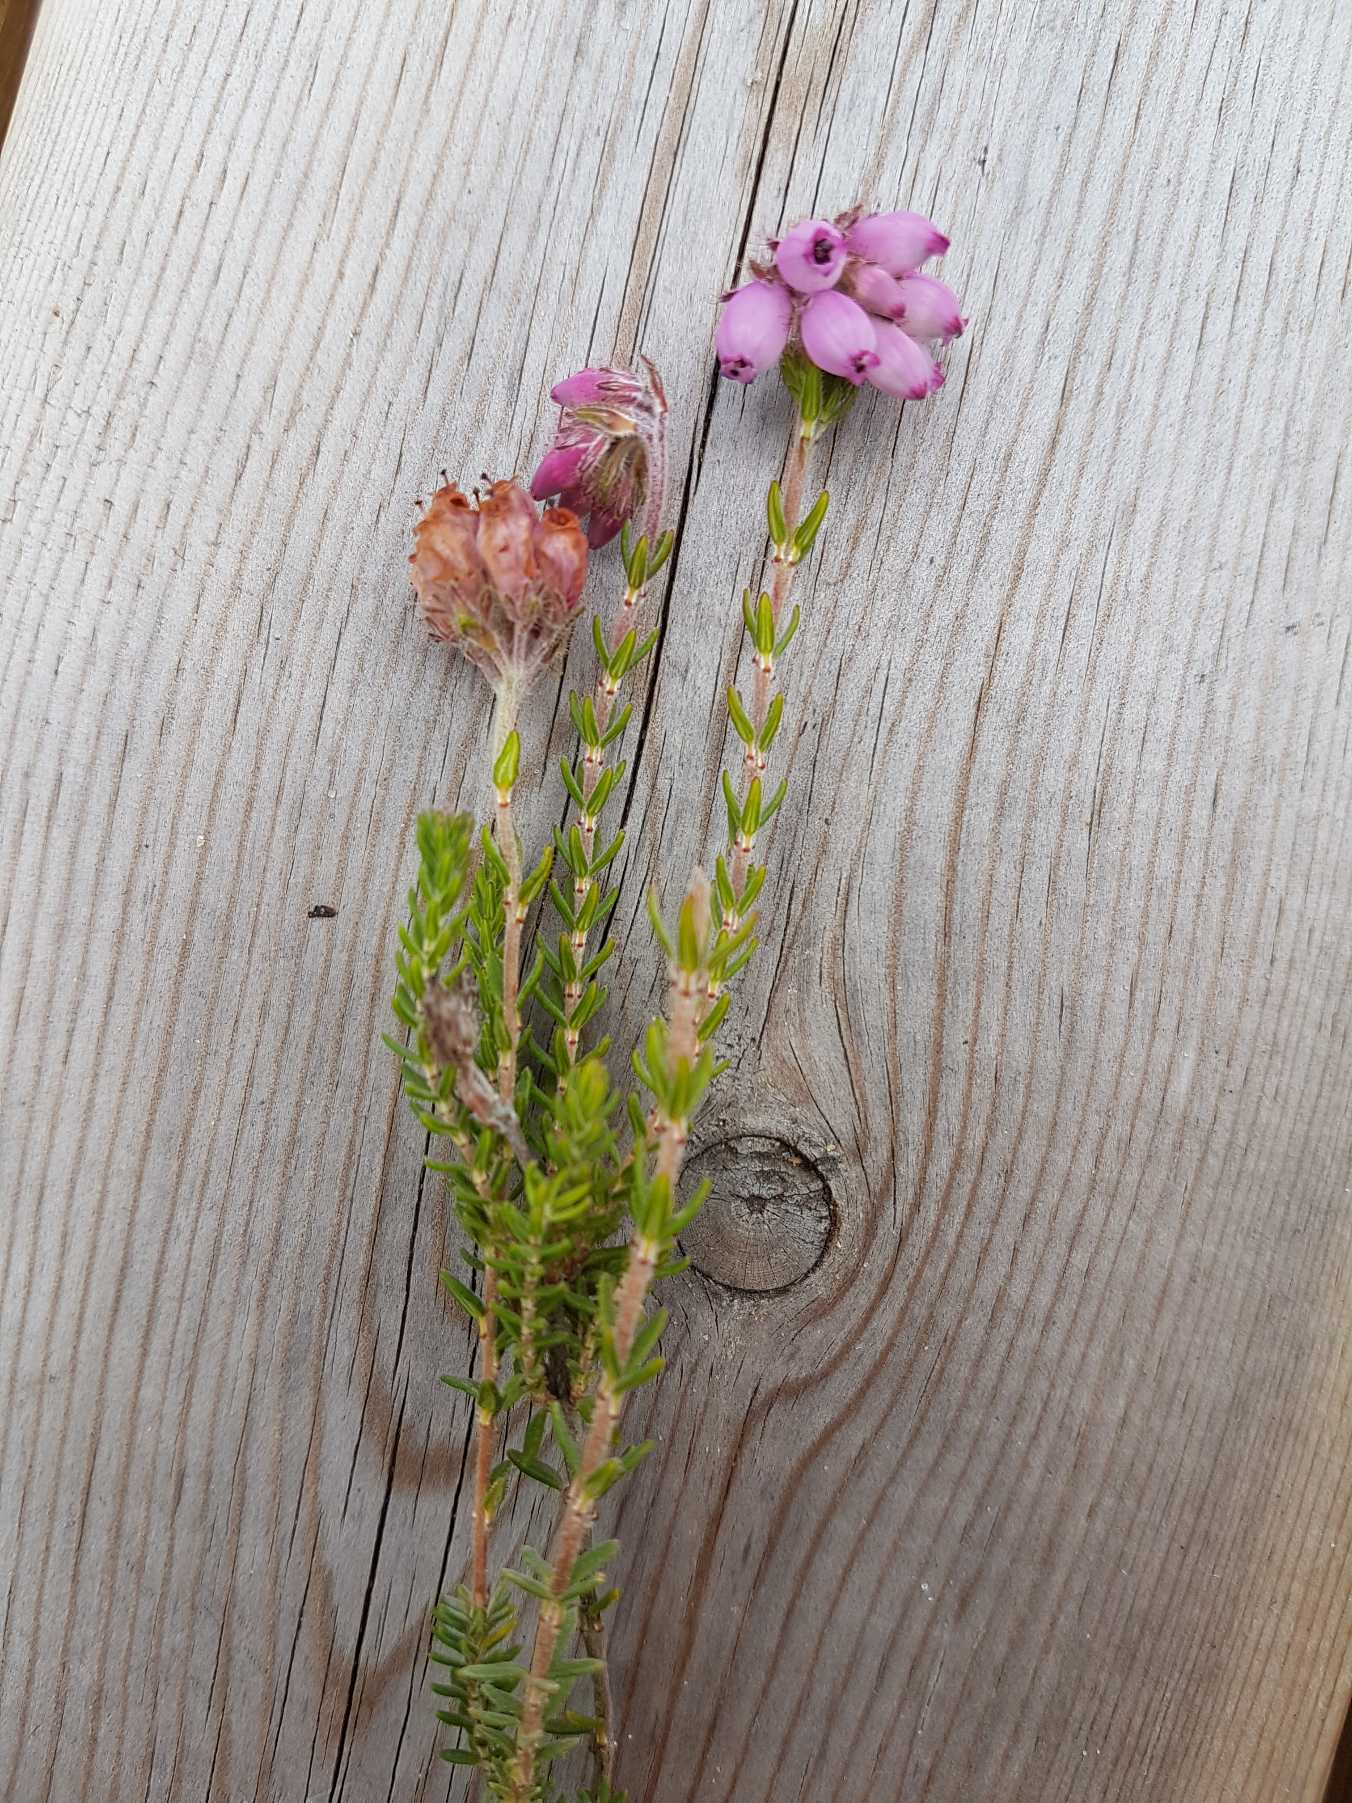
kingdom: Plantae
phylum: Tracheophyta
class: Magnoliopsida
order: Ericales
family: Ericaceae
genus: Erica
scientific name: Erica tetralix
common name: Klokkelyng
